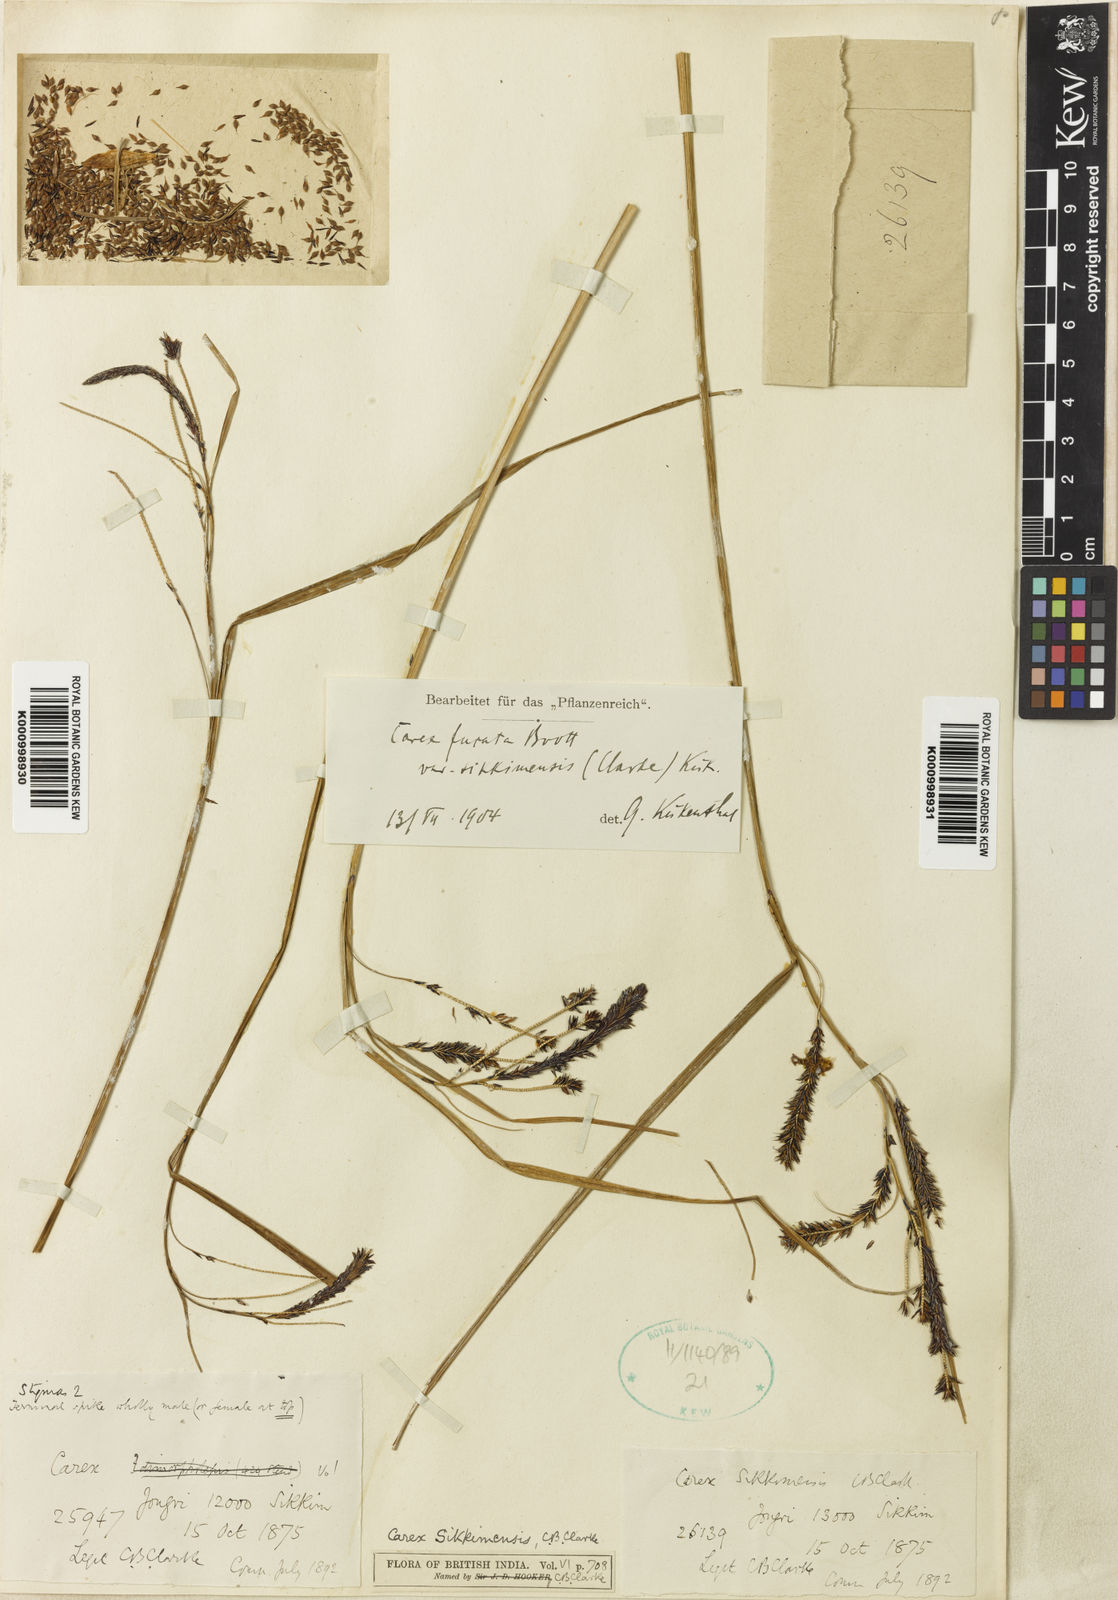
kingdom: Plantae
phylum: Tracheophyta
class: Liliopsida
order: Poales
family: Cyperaceae
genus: Carex
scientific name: Carex fucata
